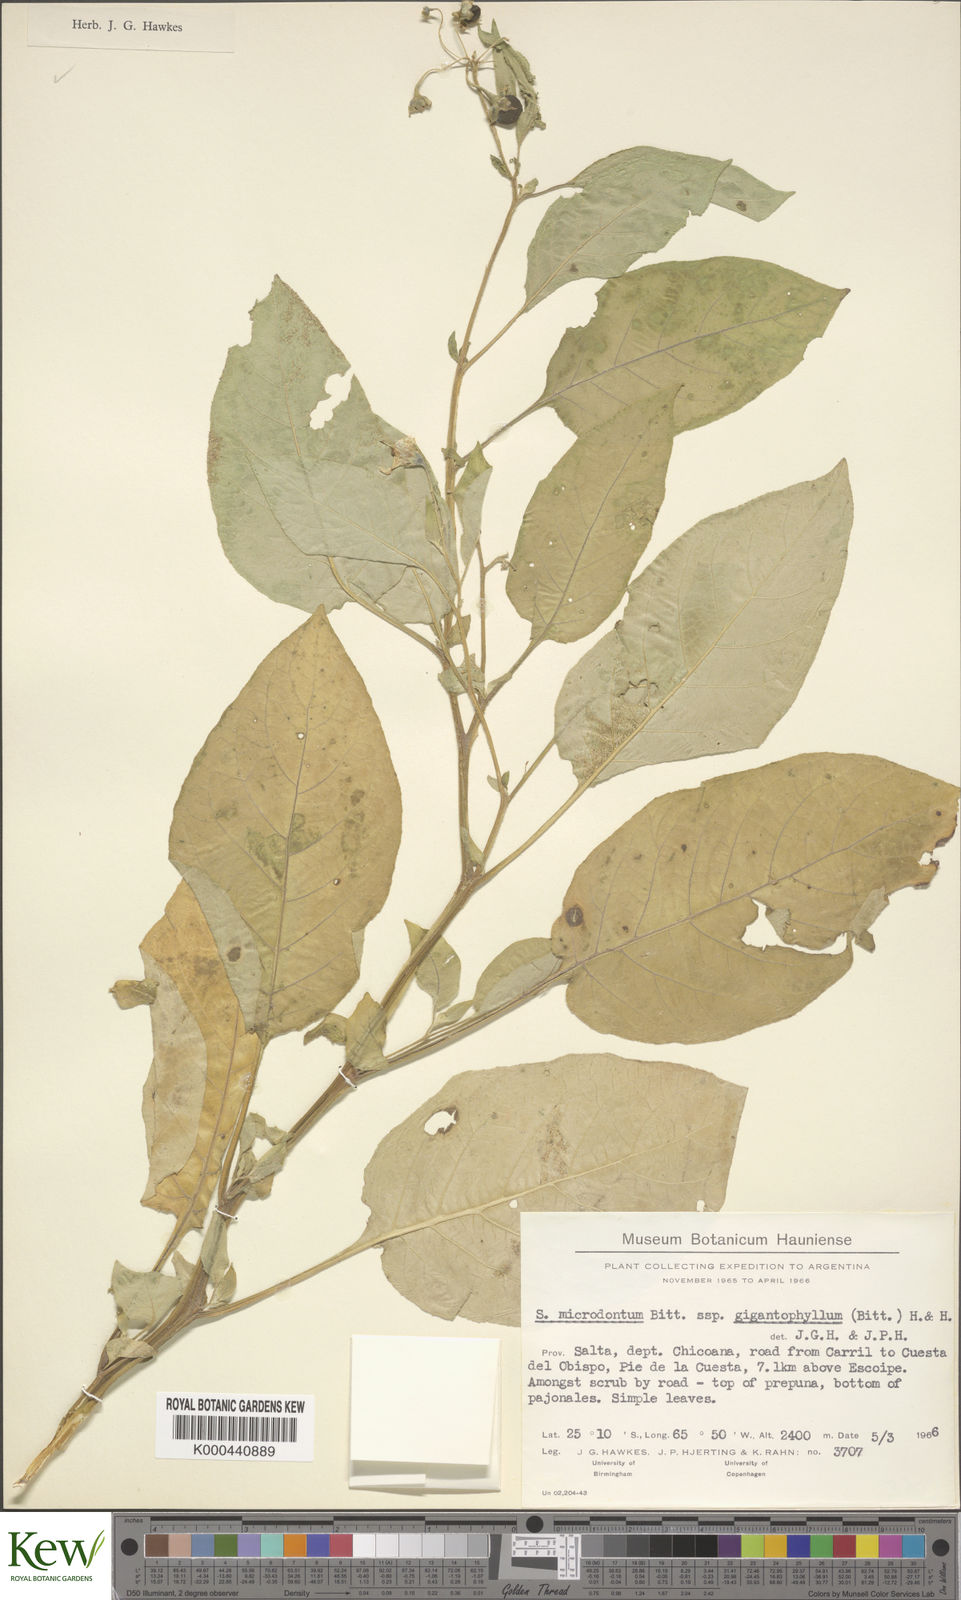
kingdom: Plantae
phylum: Tracheophyta
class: Magnoliopsida
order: Solanales
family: Solanaceae
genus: Solanum
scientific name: Solanum microdontum
